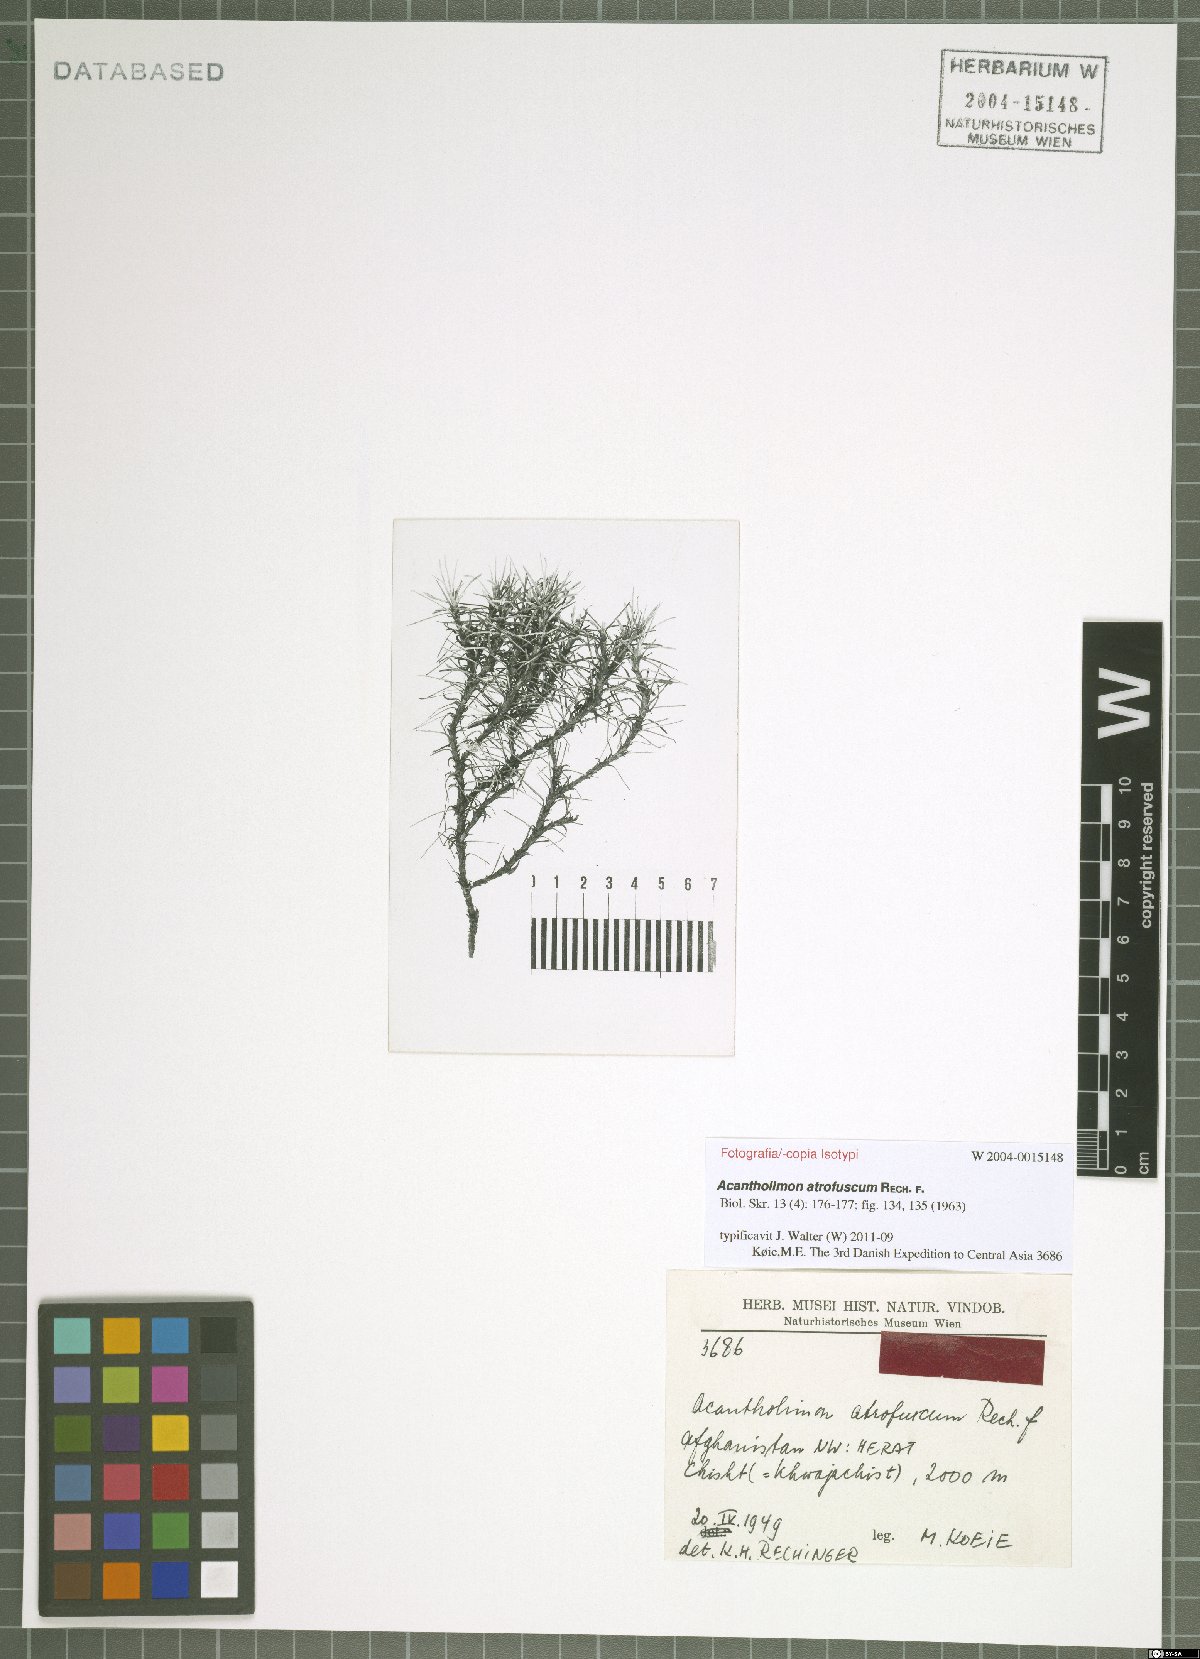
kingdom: Plantae
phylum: Tracheophyta
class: Magnoliopsida
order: Caryophyllales
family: Plumbaginaceae
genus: Acantholimon
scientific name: Acantholimon atrofuscum
